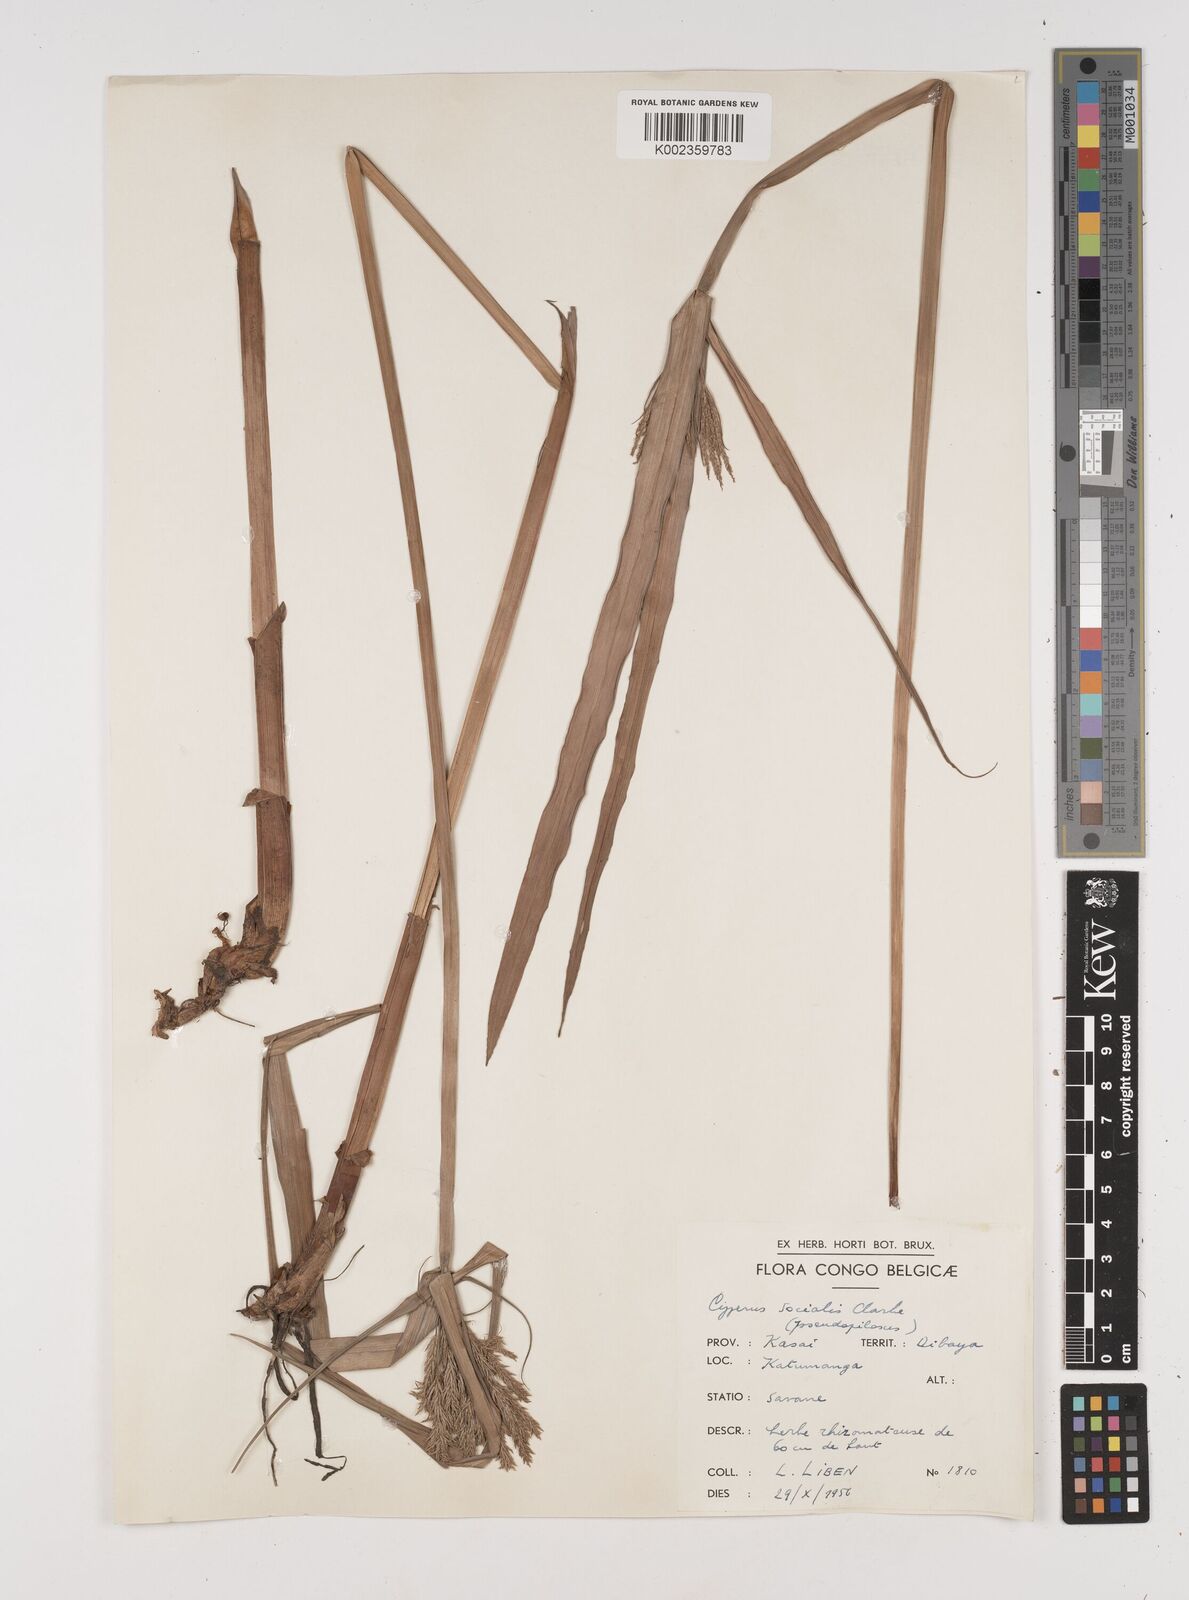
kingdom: Plantae
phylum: Tracheophyta
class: Liliopsida
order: Poales
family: Cyperaceae
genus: Cyperus
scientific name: Cyperus pseudopilosus
